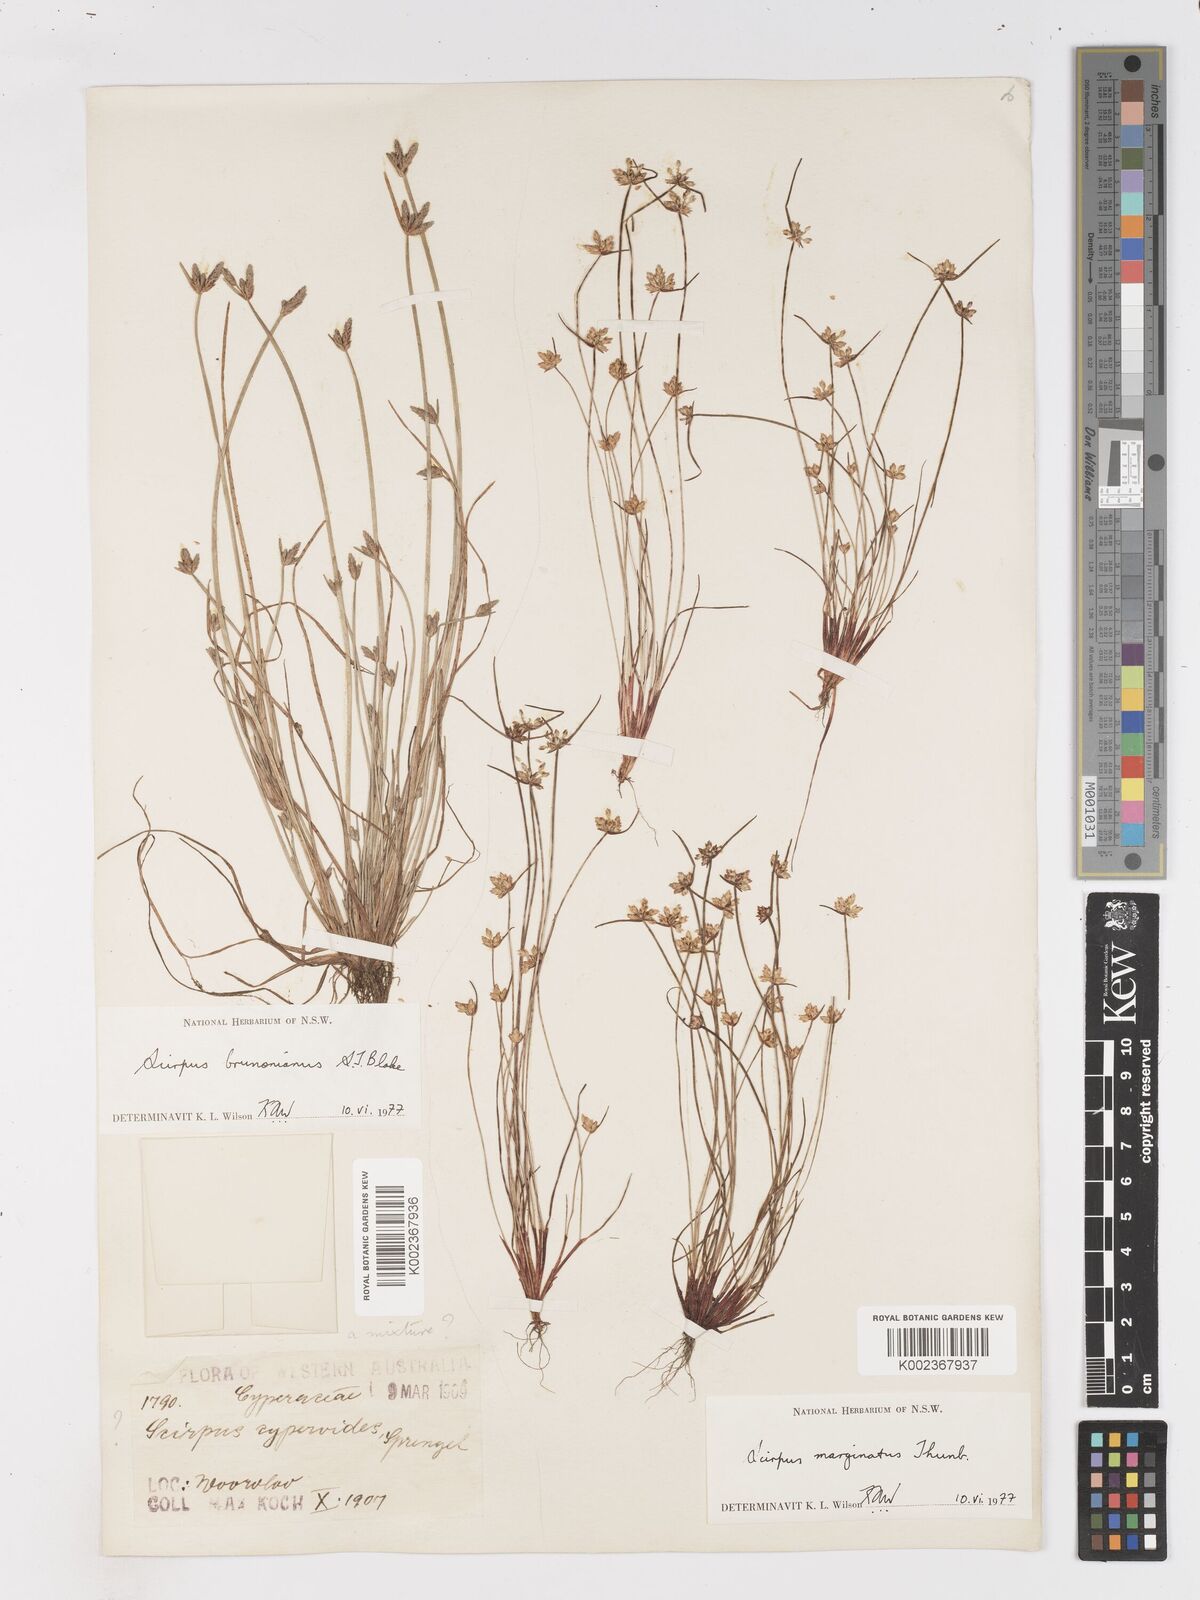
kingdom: Plantae
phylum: Tracheophyta
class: Liliopsida
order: Poales
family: Cyperaceae
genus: Isolepis
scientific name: Isolepis cyperoides
